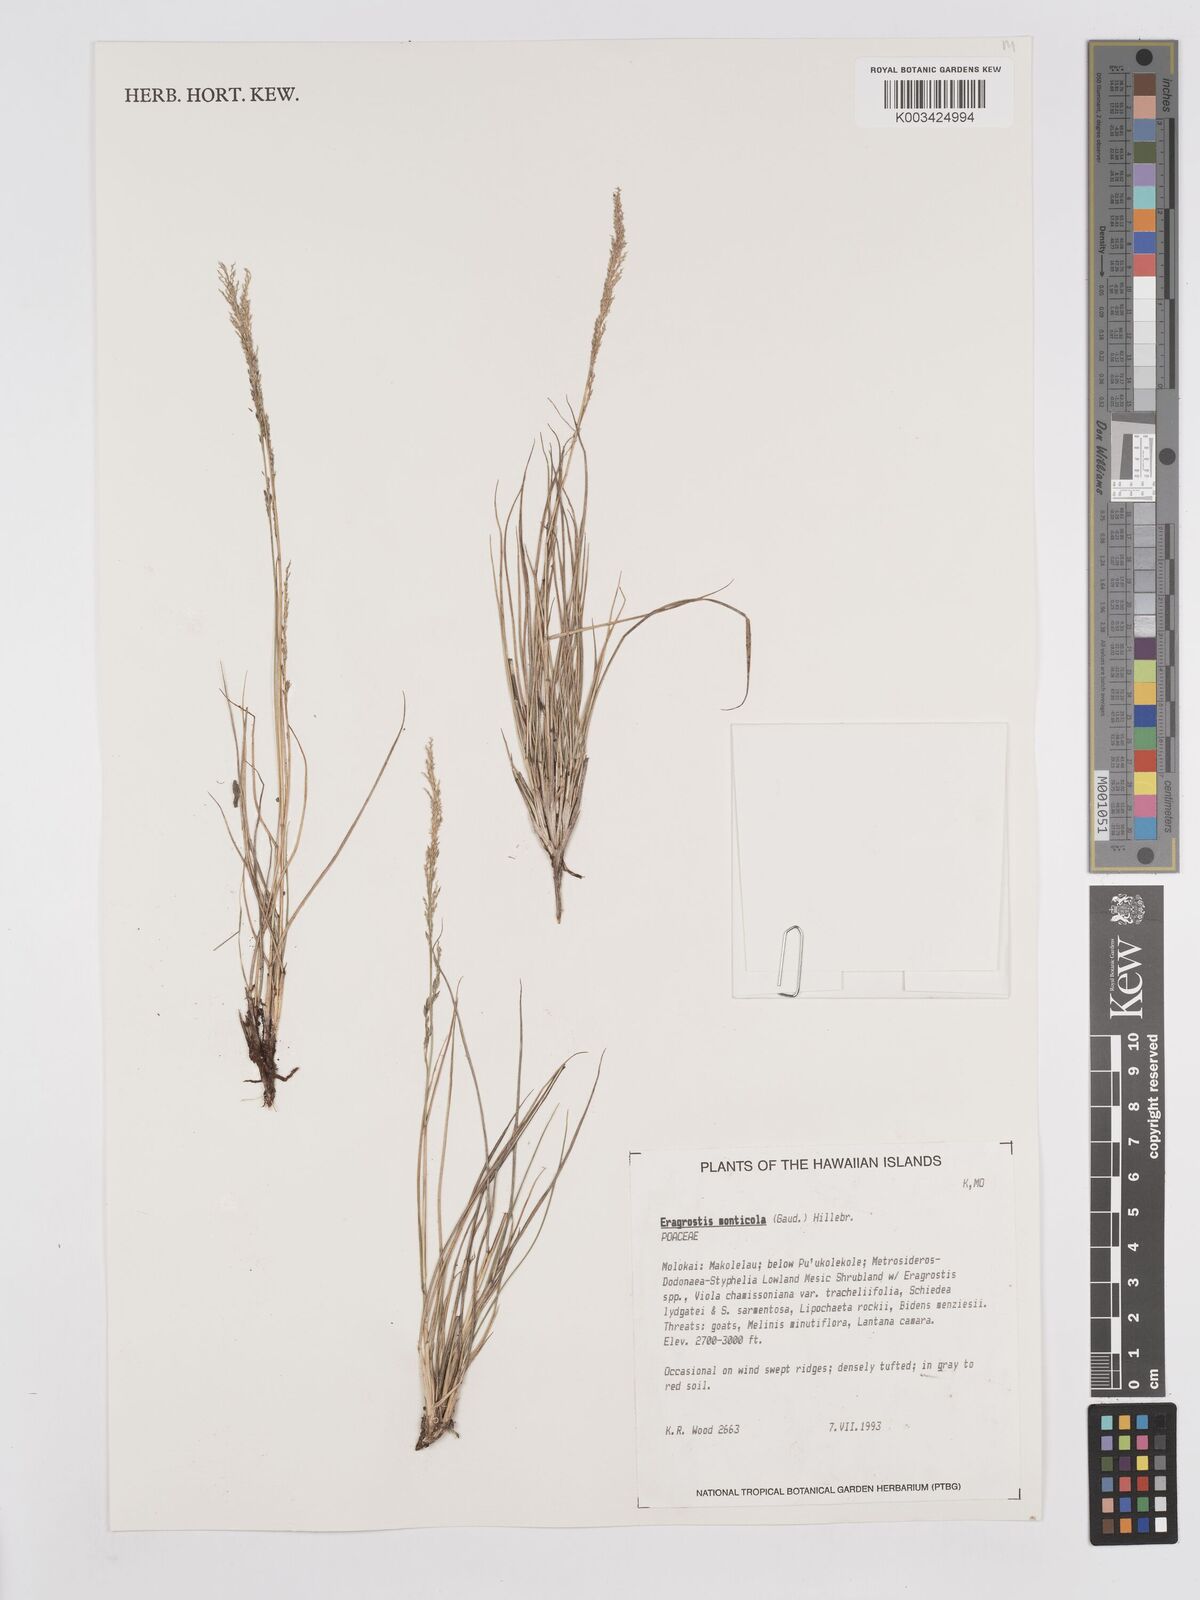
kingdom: Plantae
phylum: Tracheophyta
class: Liliopsida
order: Poales
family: Poaceae
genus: Eragrostis
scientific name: Eragrostis monticola
